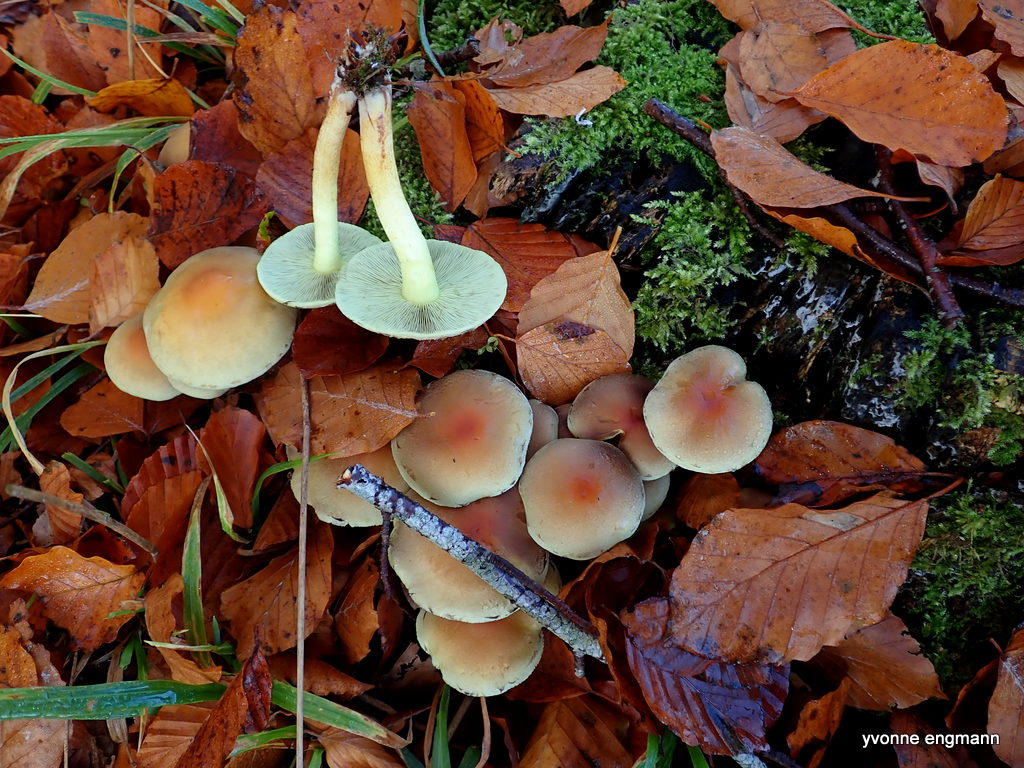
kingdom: Fungi
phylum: Basidiomycota
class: Agaricomycetes
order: Agaricales
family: Strophariaceae
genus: Hypholoma
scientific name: Hypholoma fasciculare
